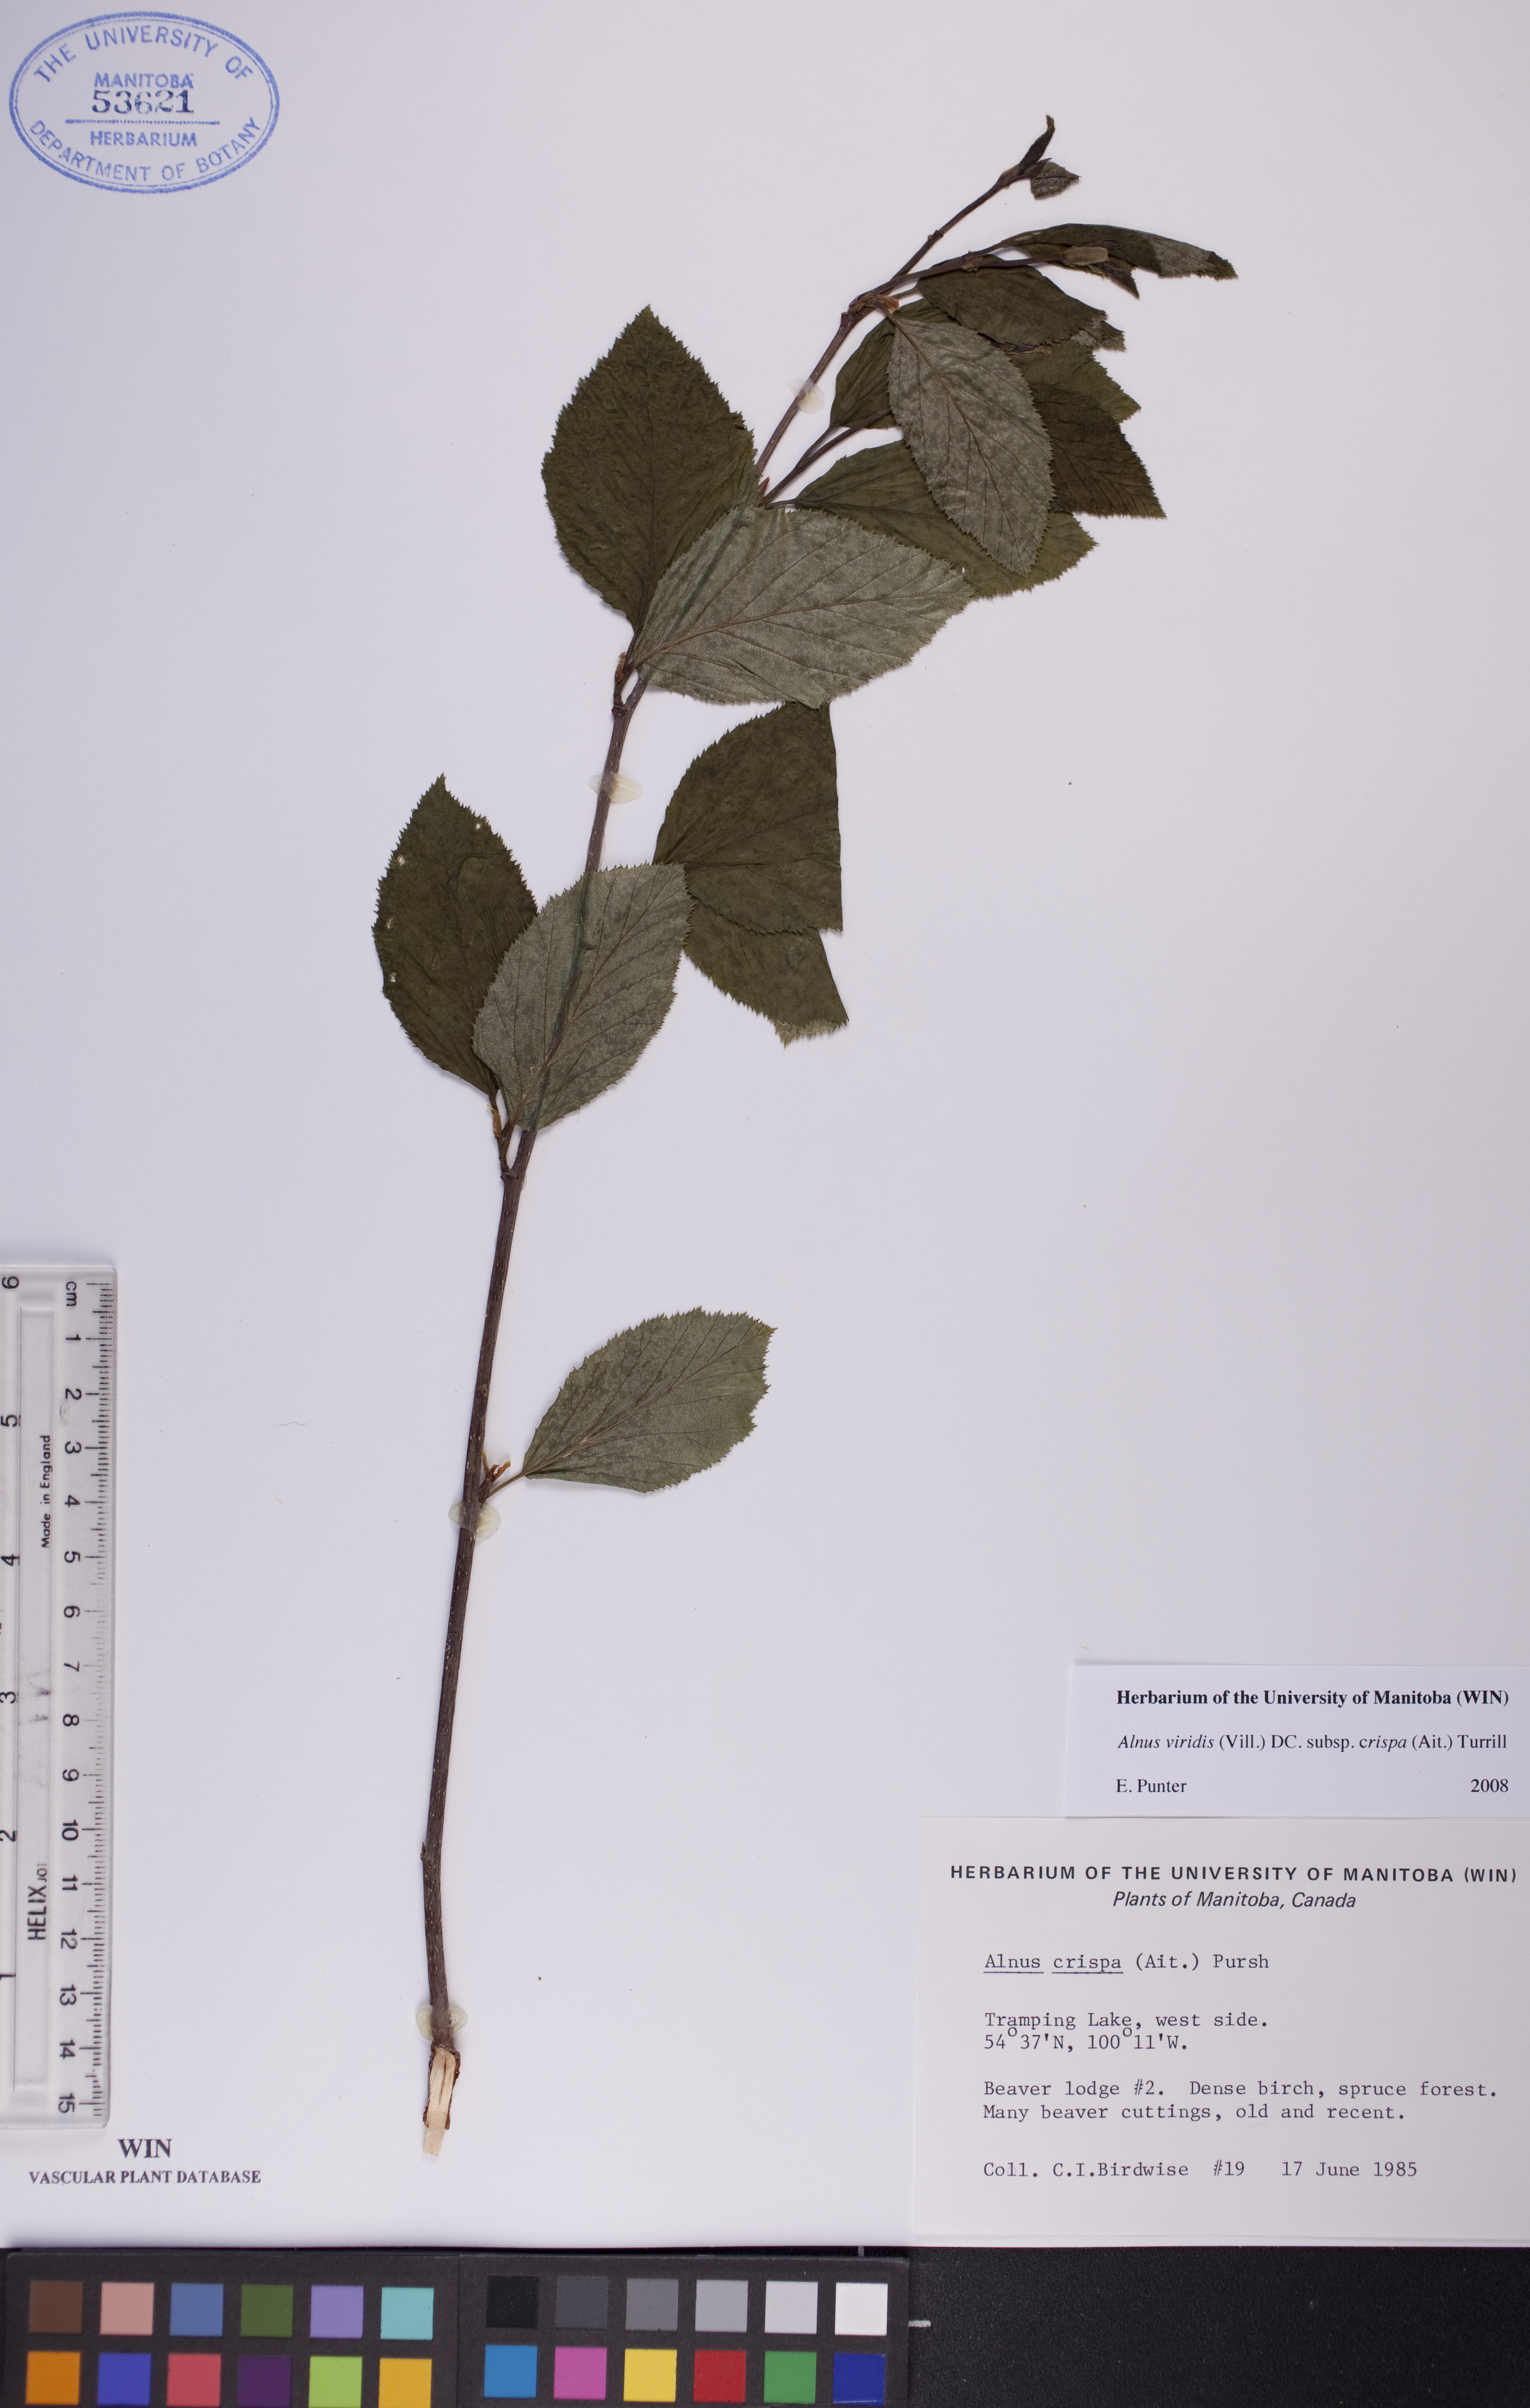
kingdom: Plantae
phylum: Tracheophyta
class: Magnoliopsida
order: Fagales
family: Betulaceae
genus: Alnus
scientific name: Alnus alnobetula
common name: Green alder
